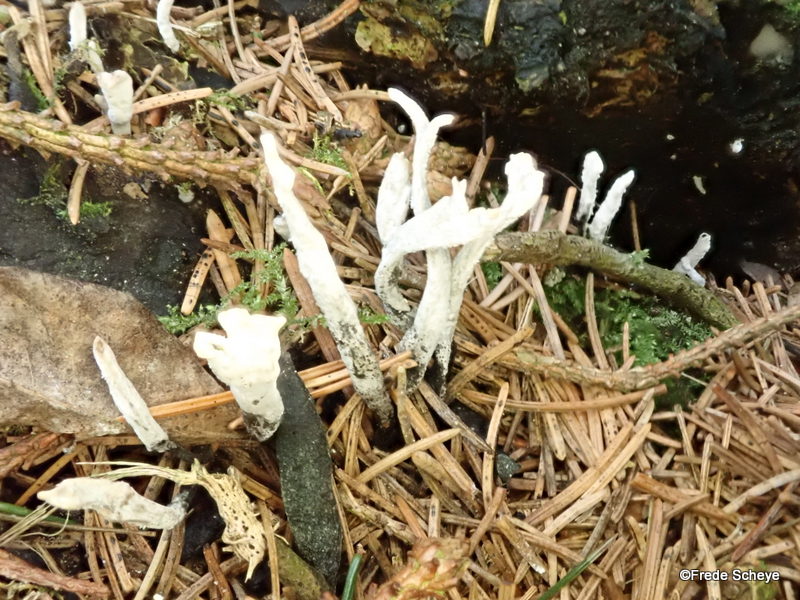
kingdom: Fungi
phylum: Ascomycota
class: Sordariomycetes
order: Xylariales
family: Xylariaceae
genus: Xylaria
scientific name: Xylaria hypoxylon
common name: grenet stødsvamp
